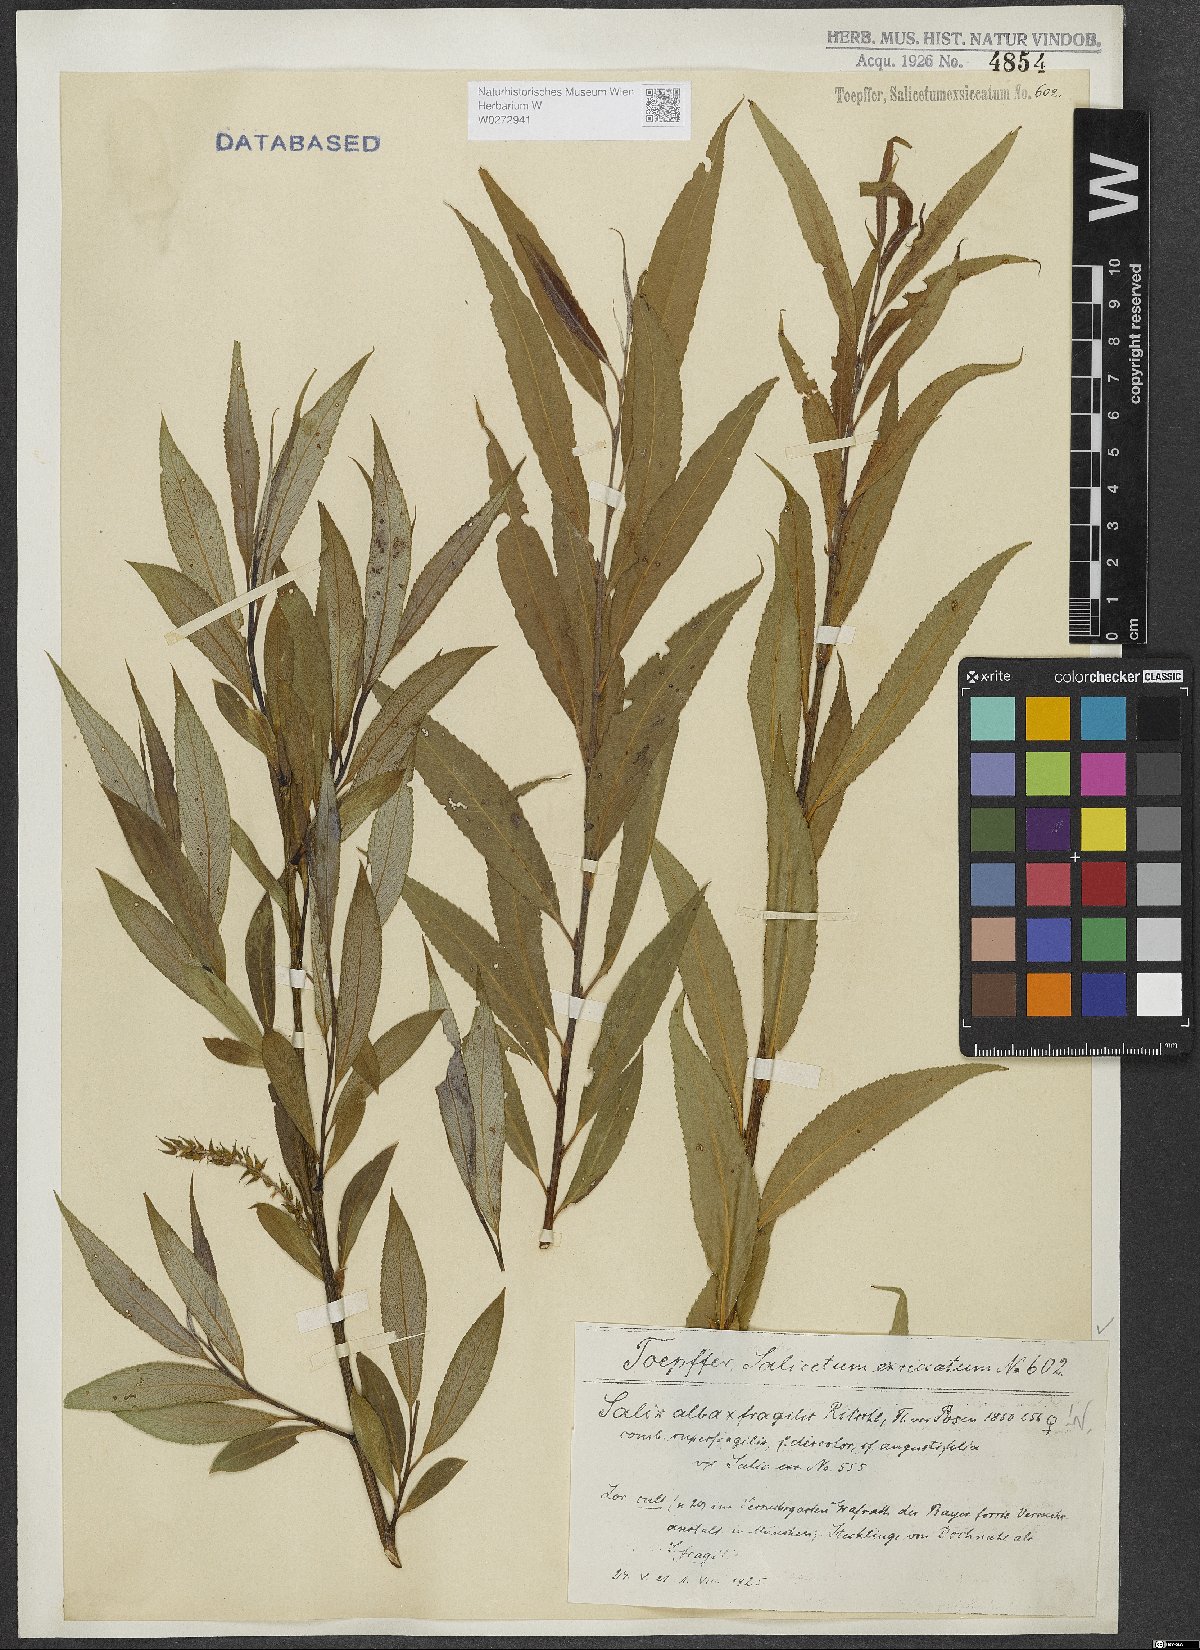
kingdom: Plantae
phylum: Tracheophyta
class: Magnoliopsida
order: Malpighiales
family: Salicaceae
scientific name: Salicaceae
